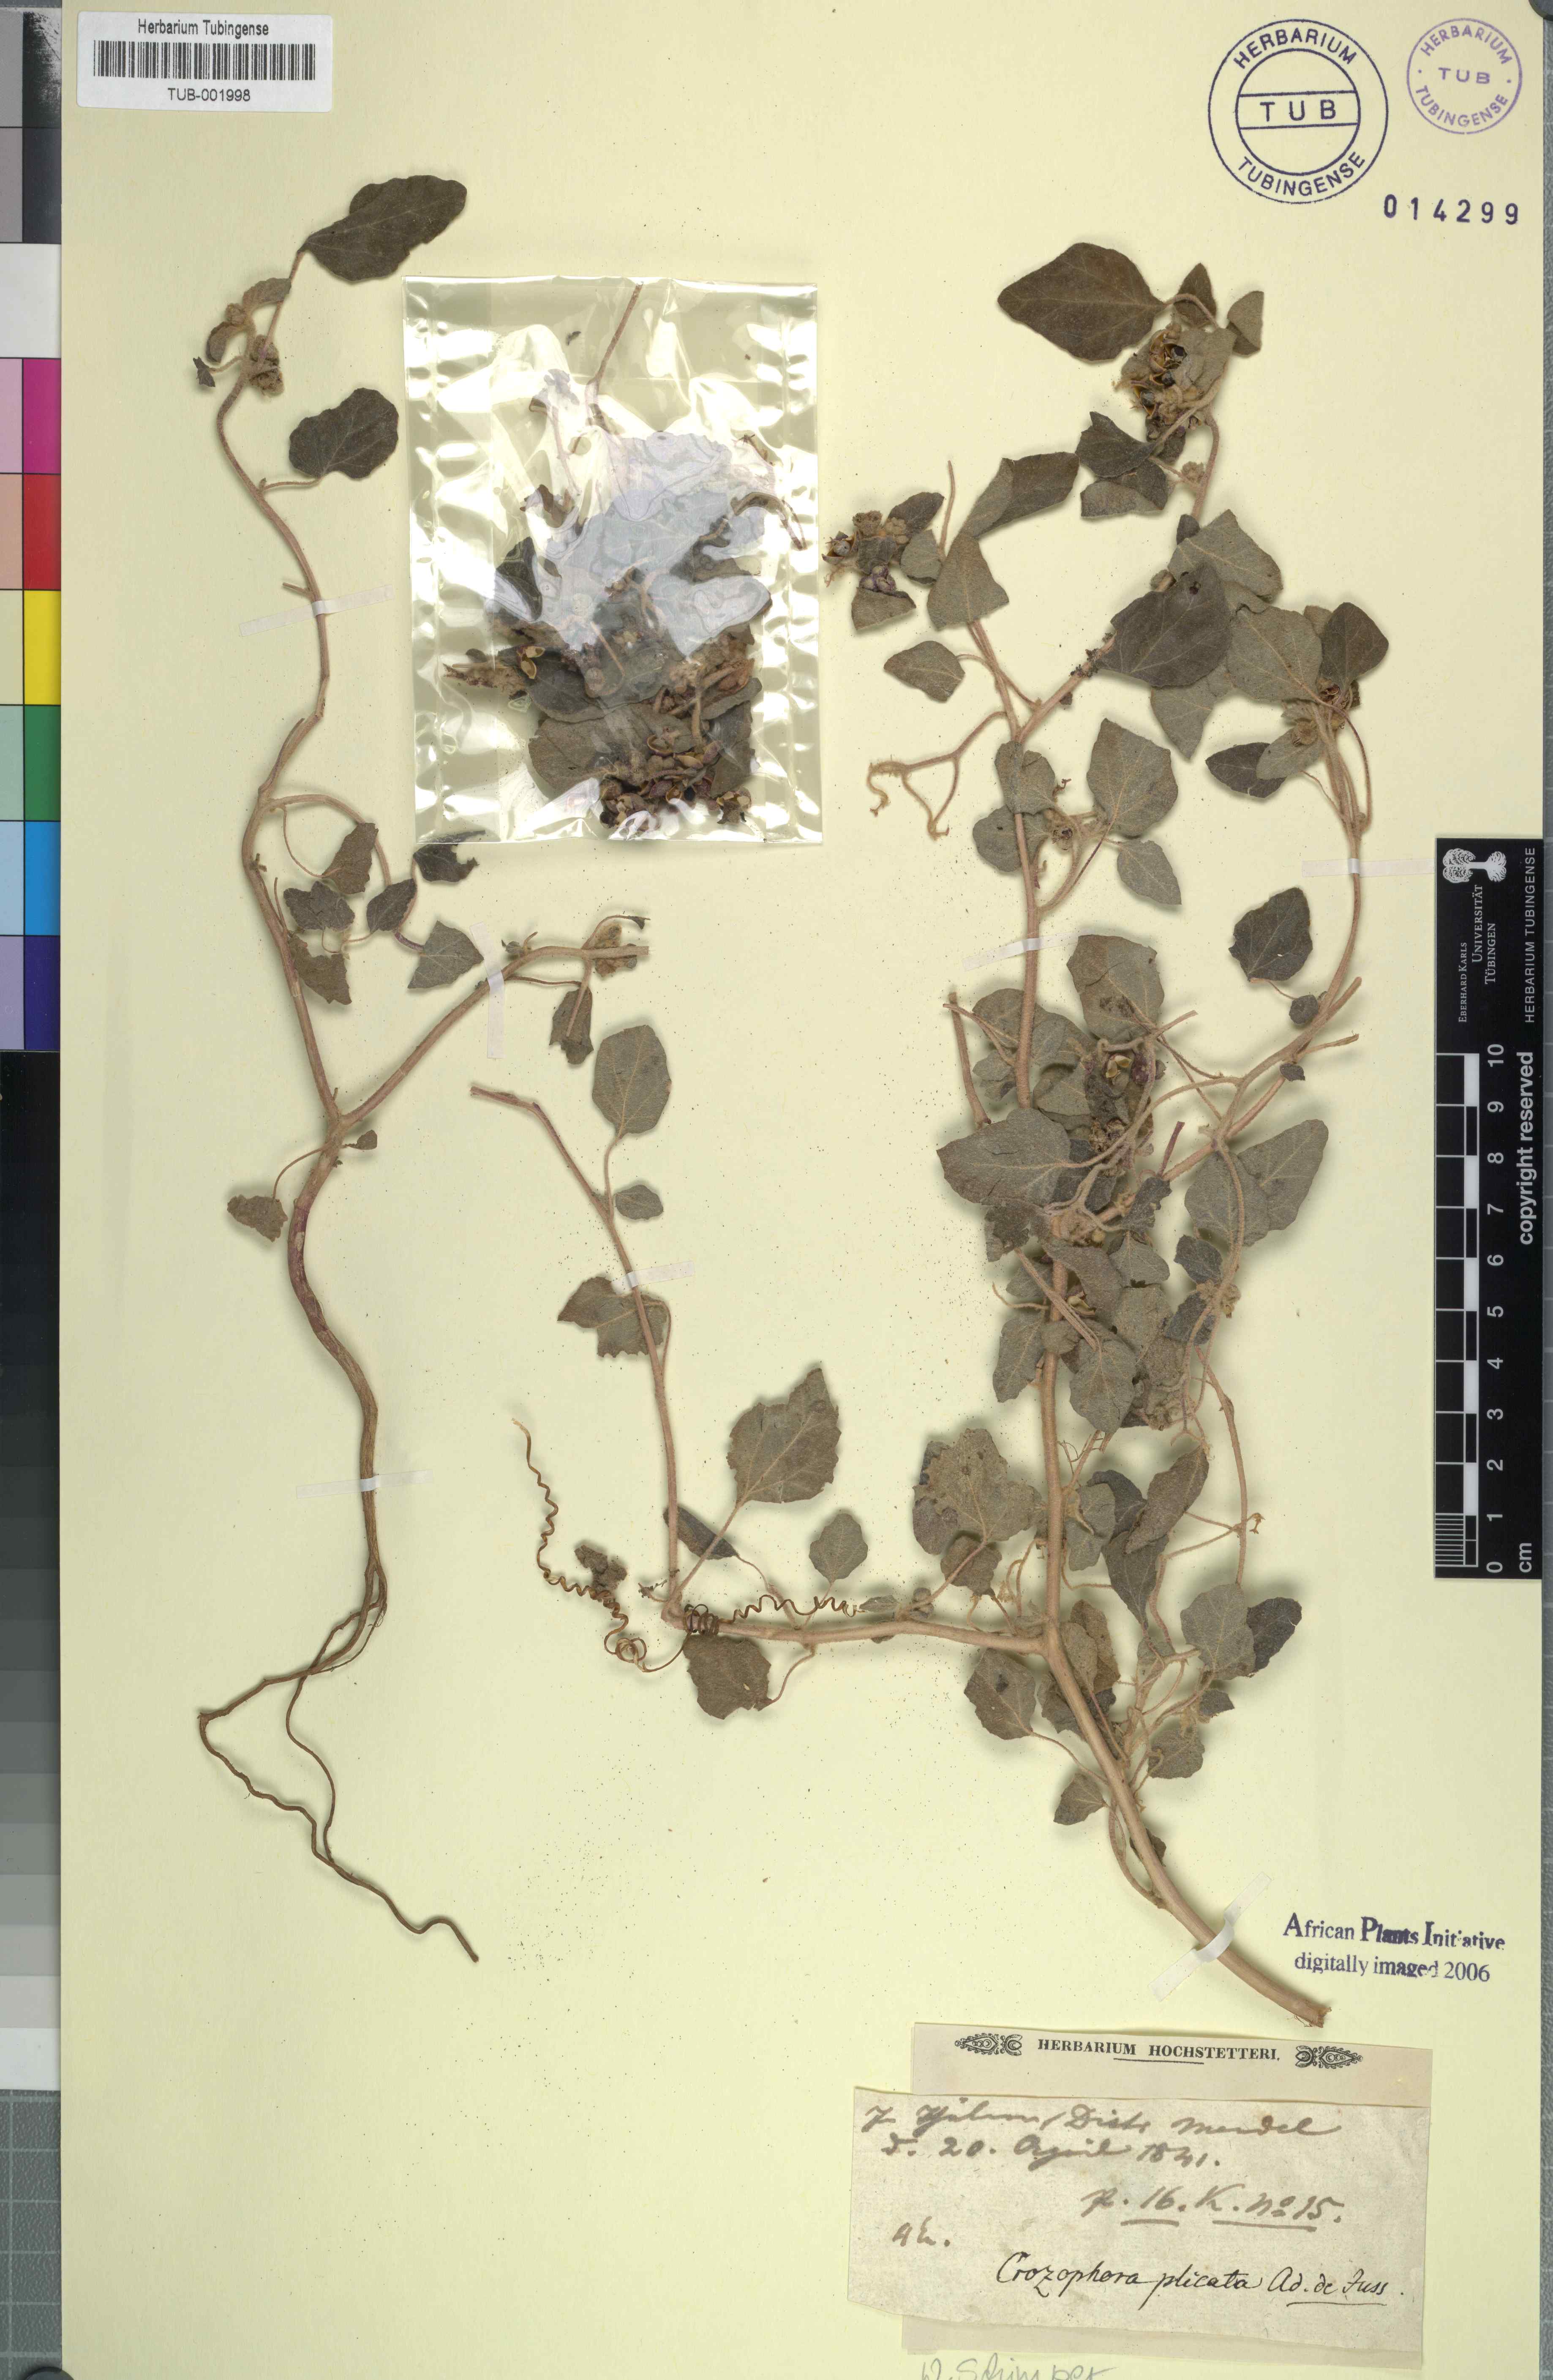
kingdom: Plantae
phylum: Tracheophyta
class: Magnoliopsida
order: Malpighiales
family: Euphorbiaceae
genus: Chrozophora
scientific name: Chrozophora plicata
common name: Giradol
